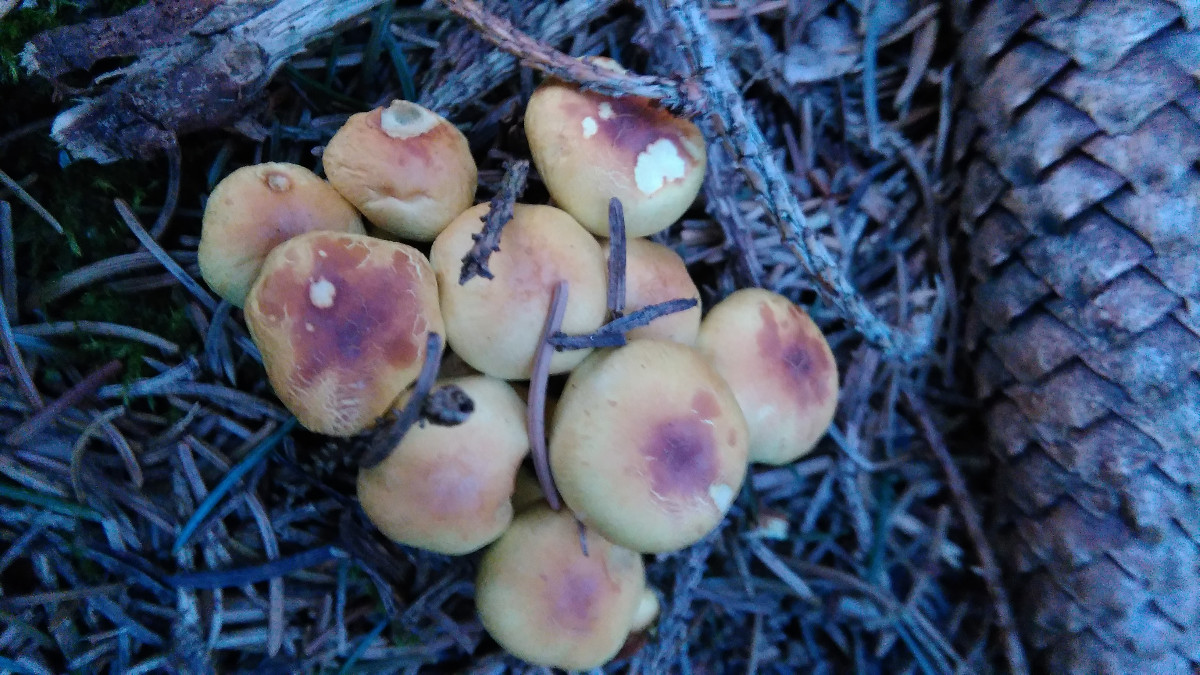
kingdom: Fungi
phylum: Basidiomycota
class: Agaricomycetes
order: Agaricales
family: Strophariaceae
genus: Hypholoma
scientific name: Hypholoma fasciculare
